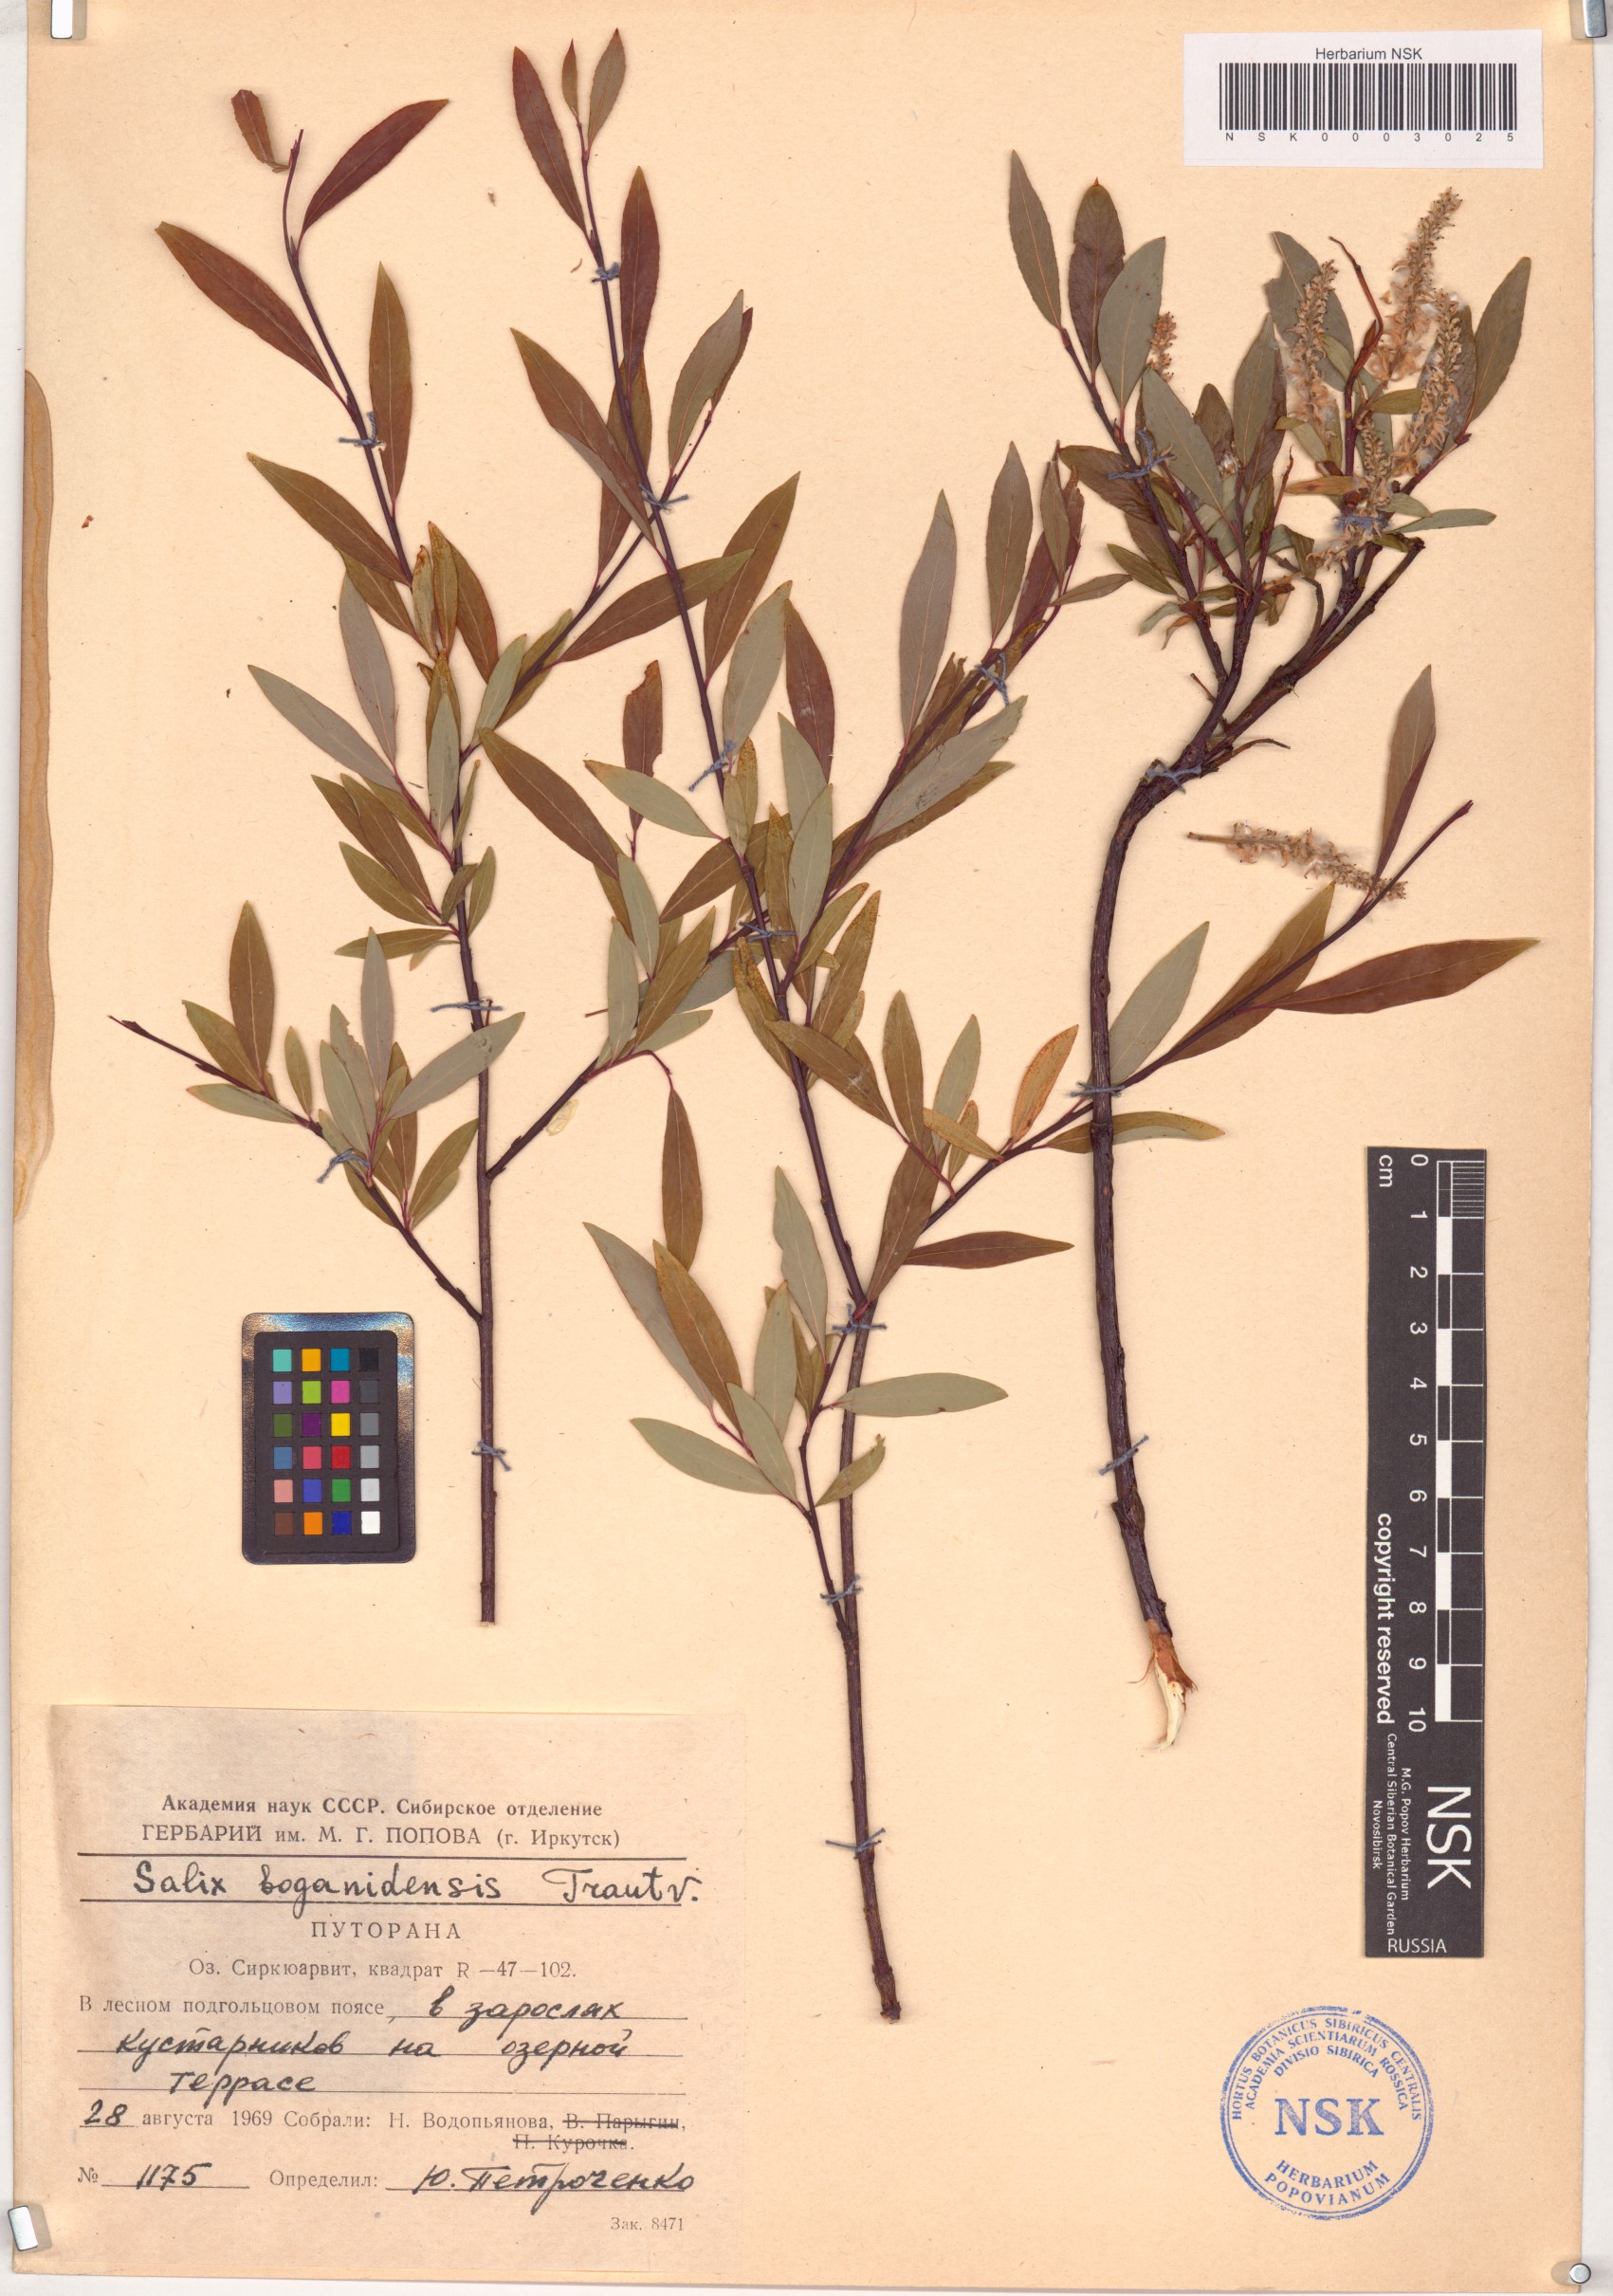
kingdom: Plantae
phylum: Tracheophyta
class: Magnoliopsida
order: Malpighiales
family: Salicaceae
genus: Salix
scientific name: Salix boganidensis
